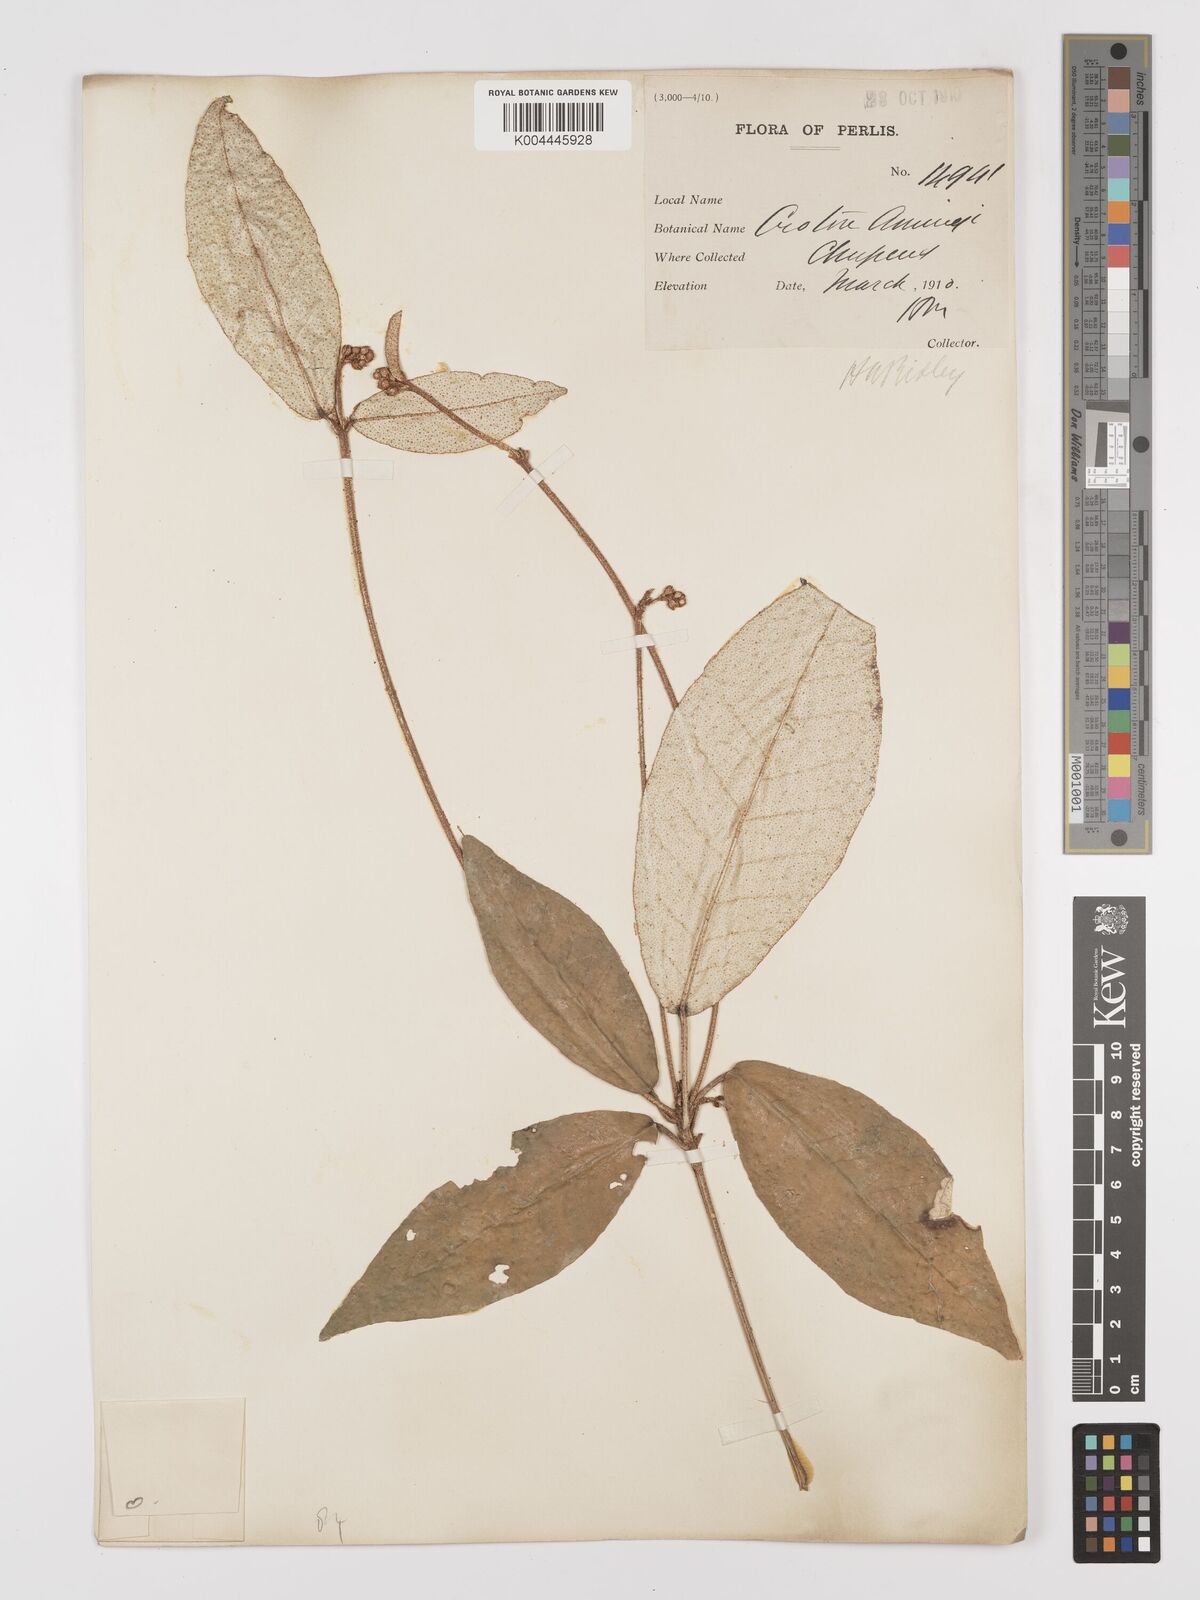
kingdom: Plantae
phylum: Tracheophyta
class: Magnoliopsida
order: Malpighiales
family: Euphorbiaceae
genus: Croton
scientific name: Croton cascarilloides
